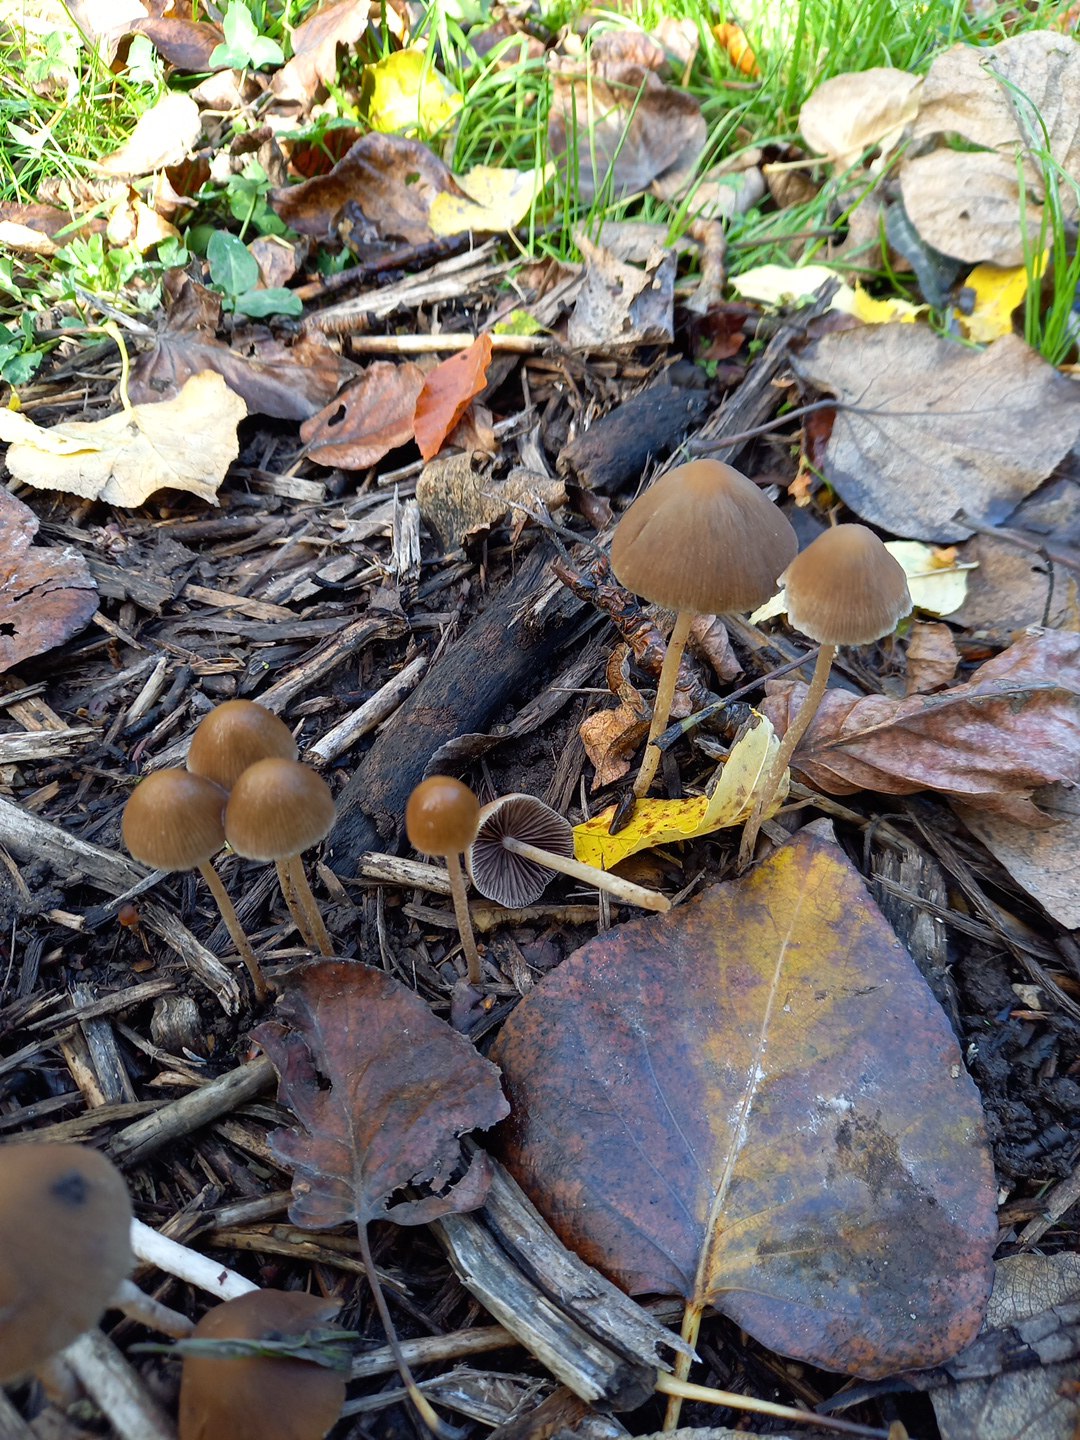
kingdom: Fungi
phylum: Basidiomycota
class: Agaricomycetes
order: Agaricales
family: Psathyrellaceae
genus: Parasola
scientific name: Parasola conopilea
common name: kegle-hjulhat
